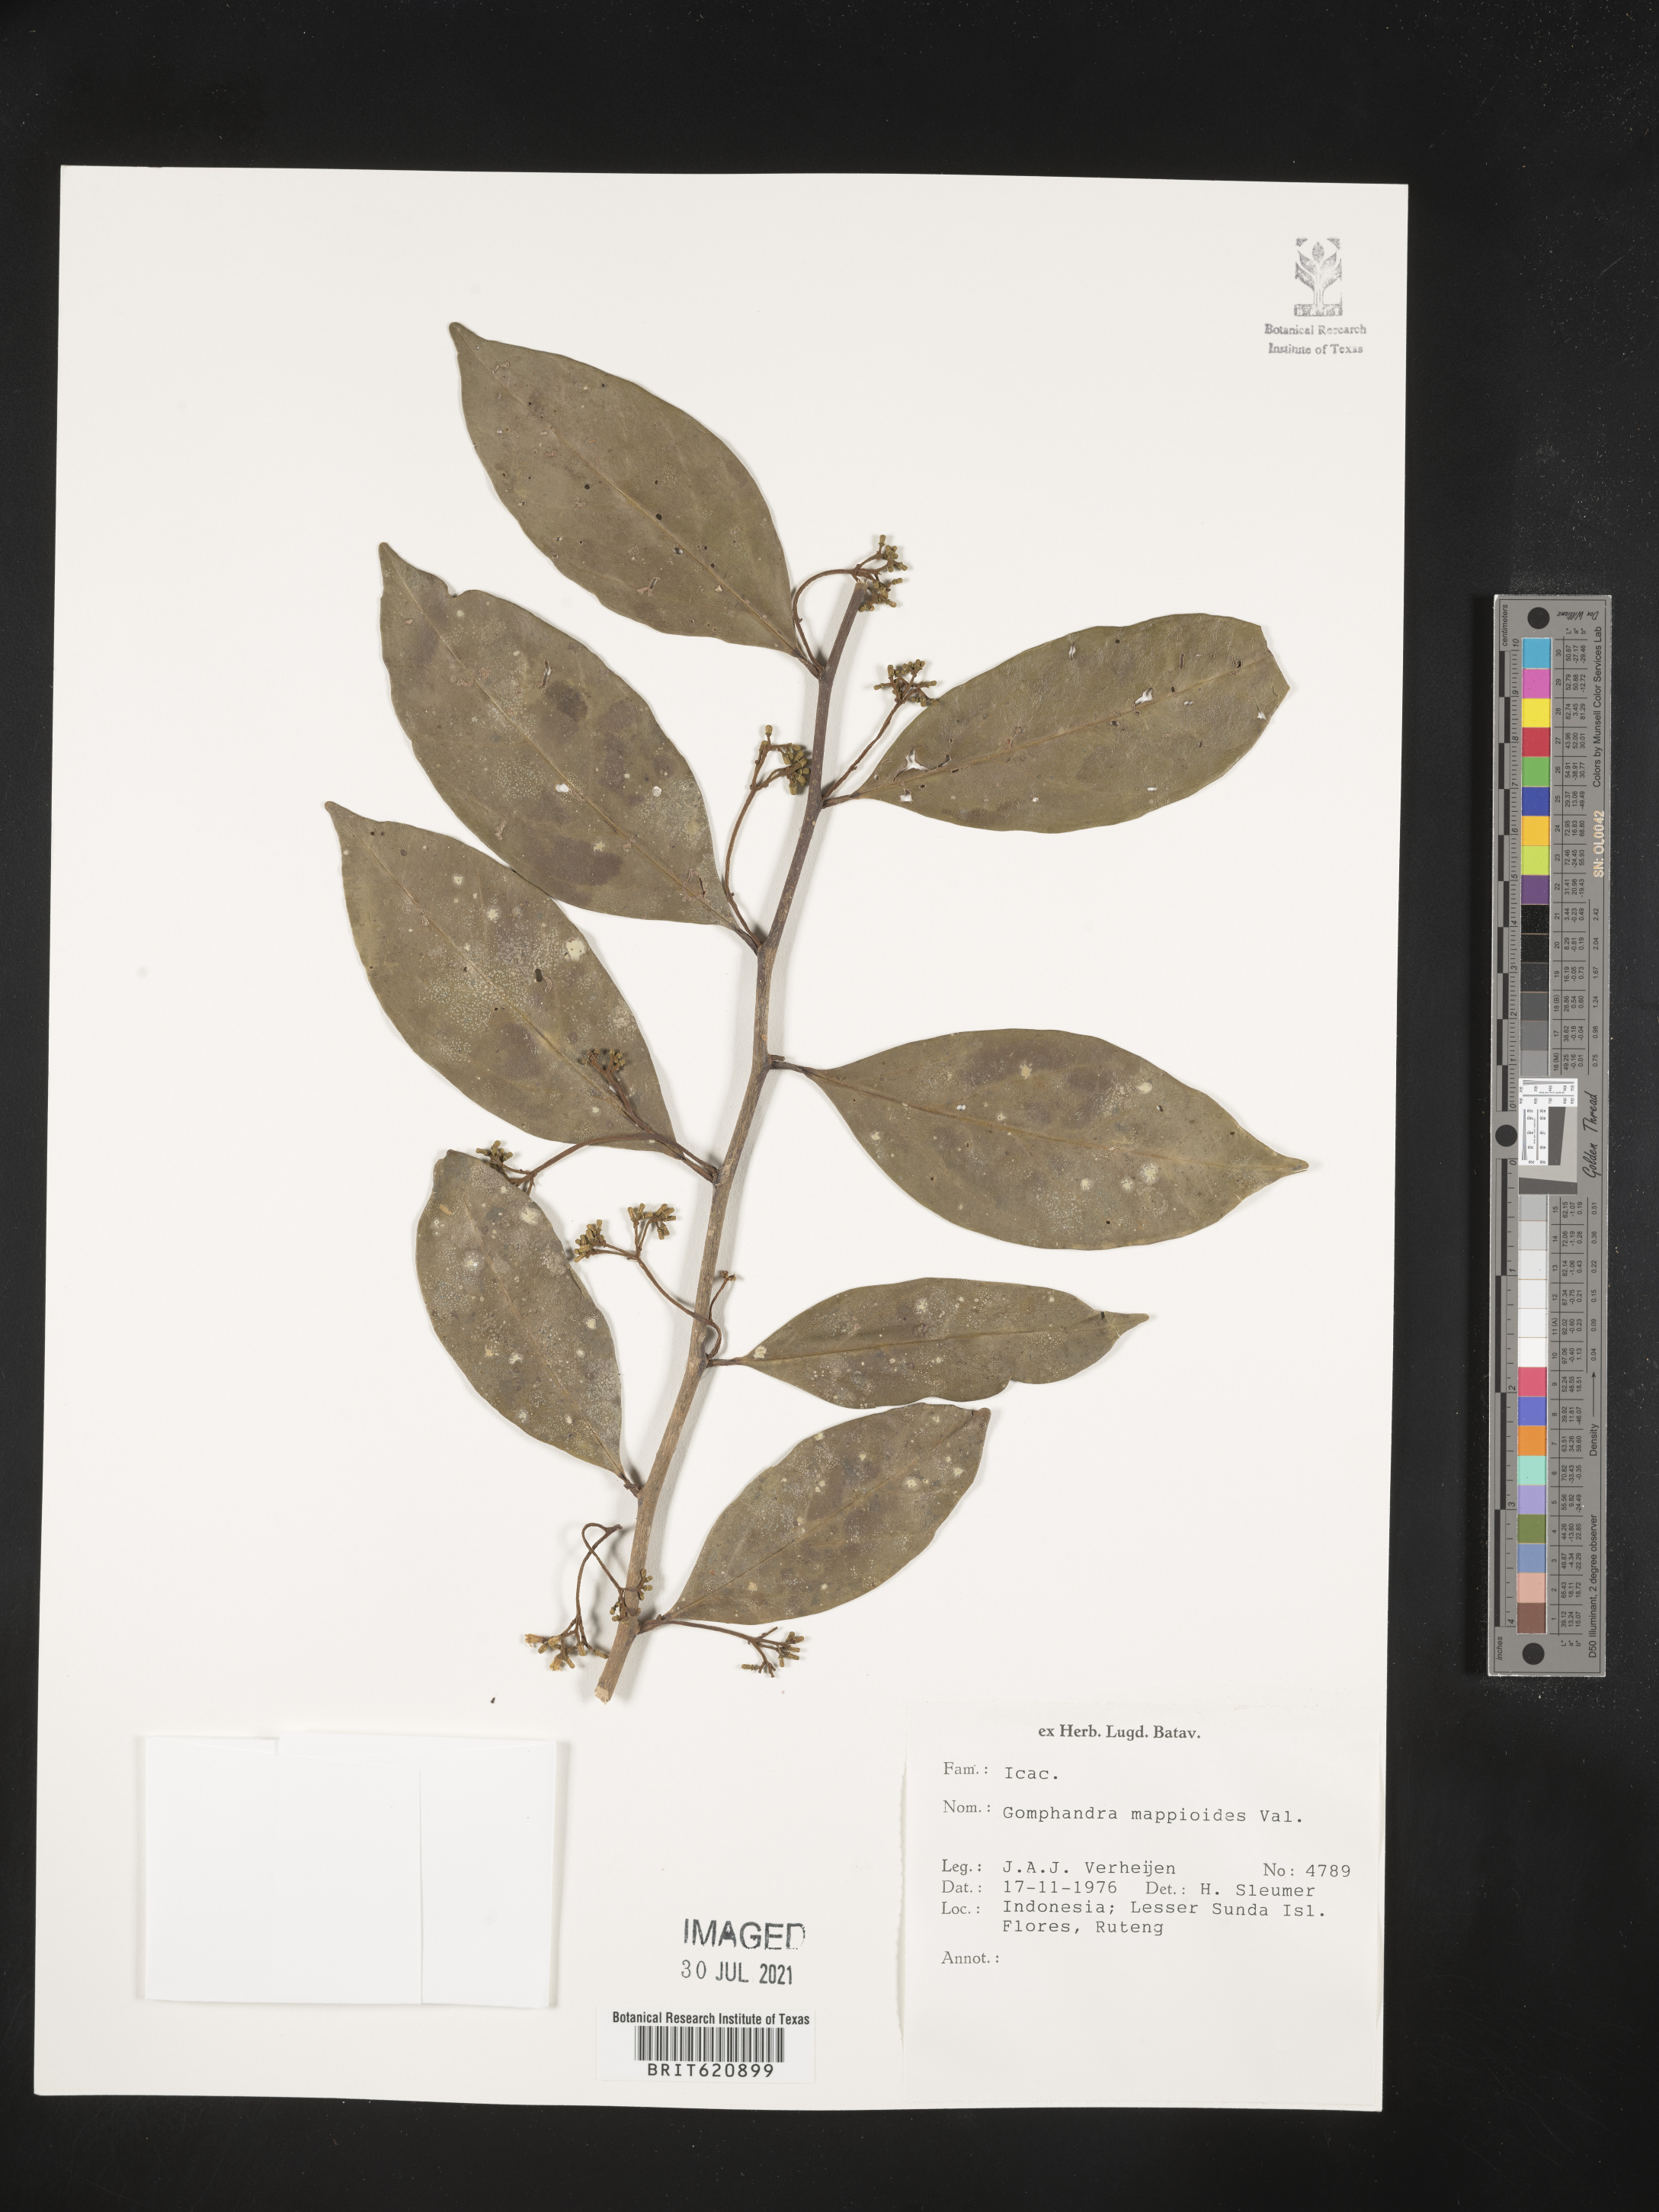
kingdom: Plantae
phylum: Tracheophyta
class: Magnoliopsida
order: Cardiopteridales
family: Stemonuraceae
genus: Gomphandra
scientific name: Gomphandra mappioides
